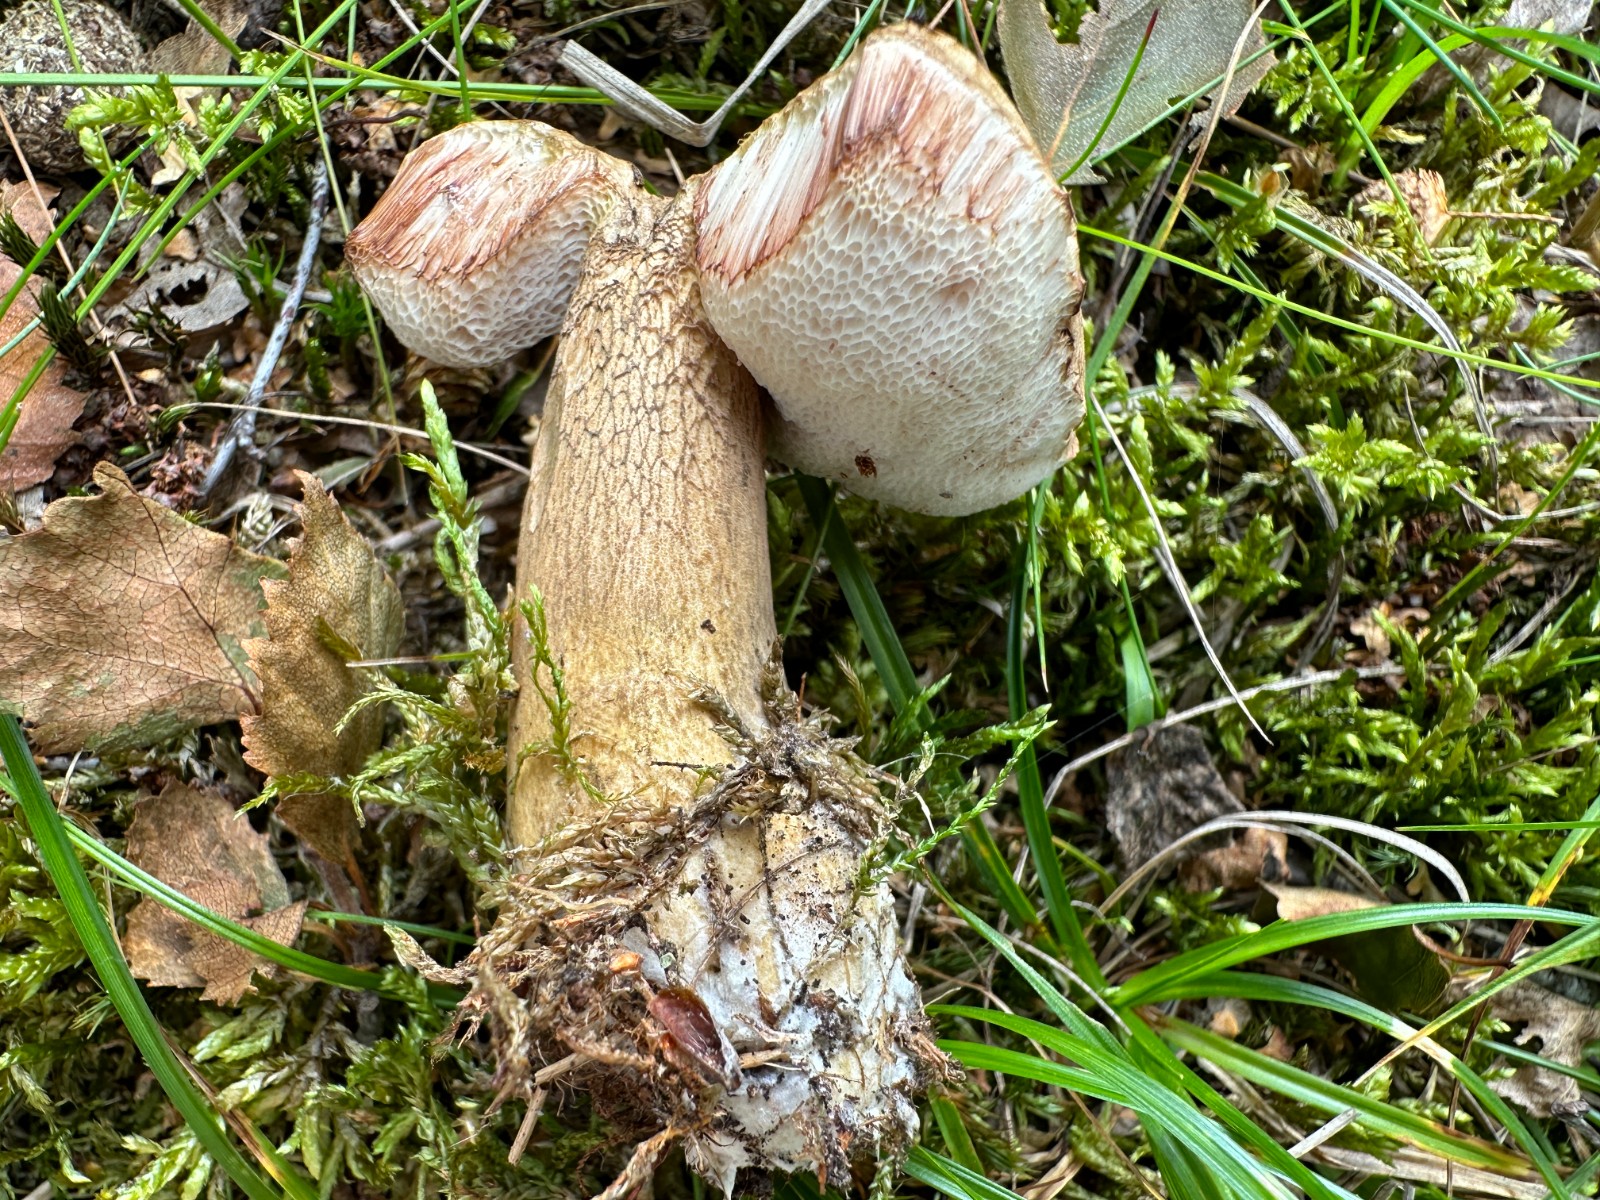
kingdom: Fungi
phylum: Basidiomycota
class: Agaricomycetes
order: Boletales
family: Boletaceae
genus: Tylopilus
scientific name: Tylopilus felleus
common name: galderørhat
